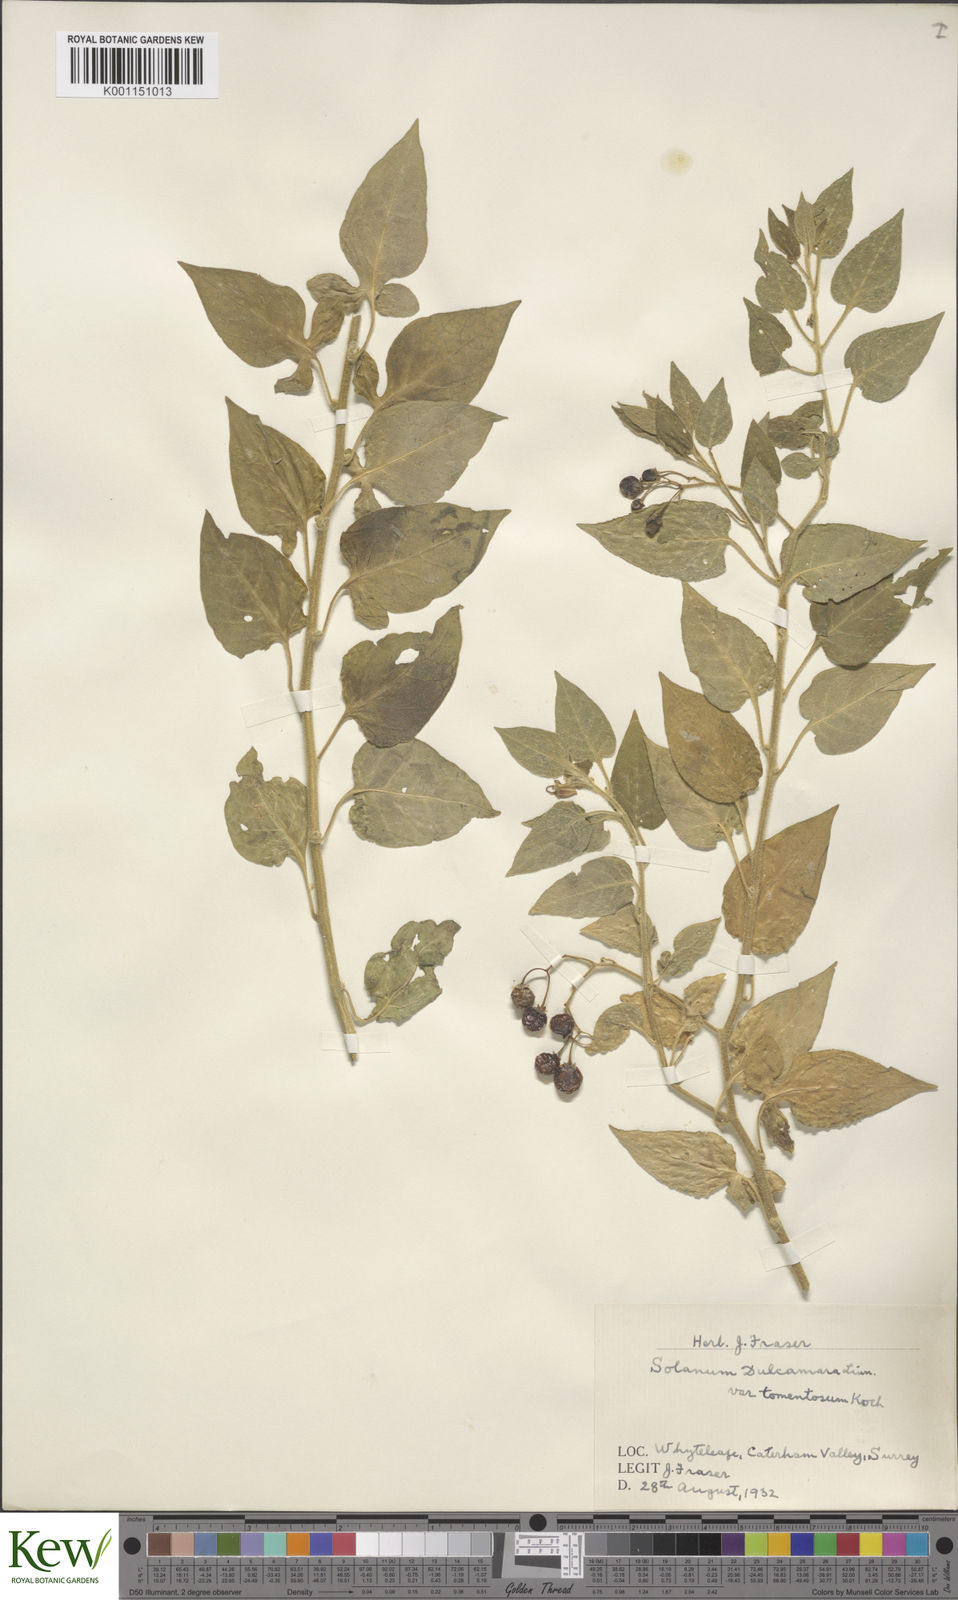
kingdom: Plantae
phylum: Tracheophyta
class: Magnoliopsida
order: Solanales
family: Solanaceae
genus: Solanum
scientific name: Solanum dulcamara
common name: Climbing nightshade
